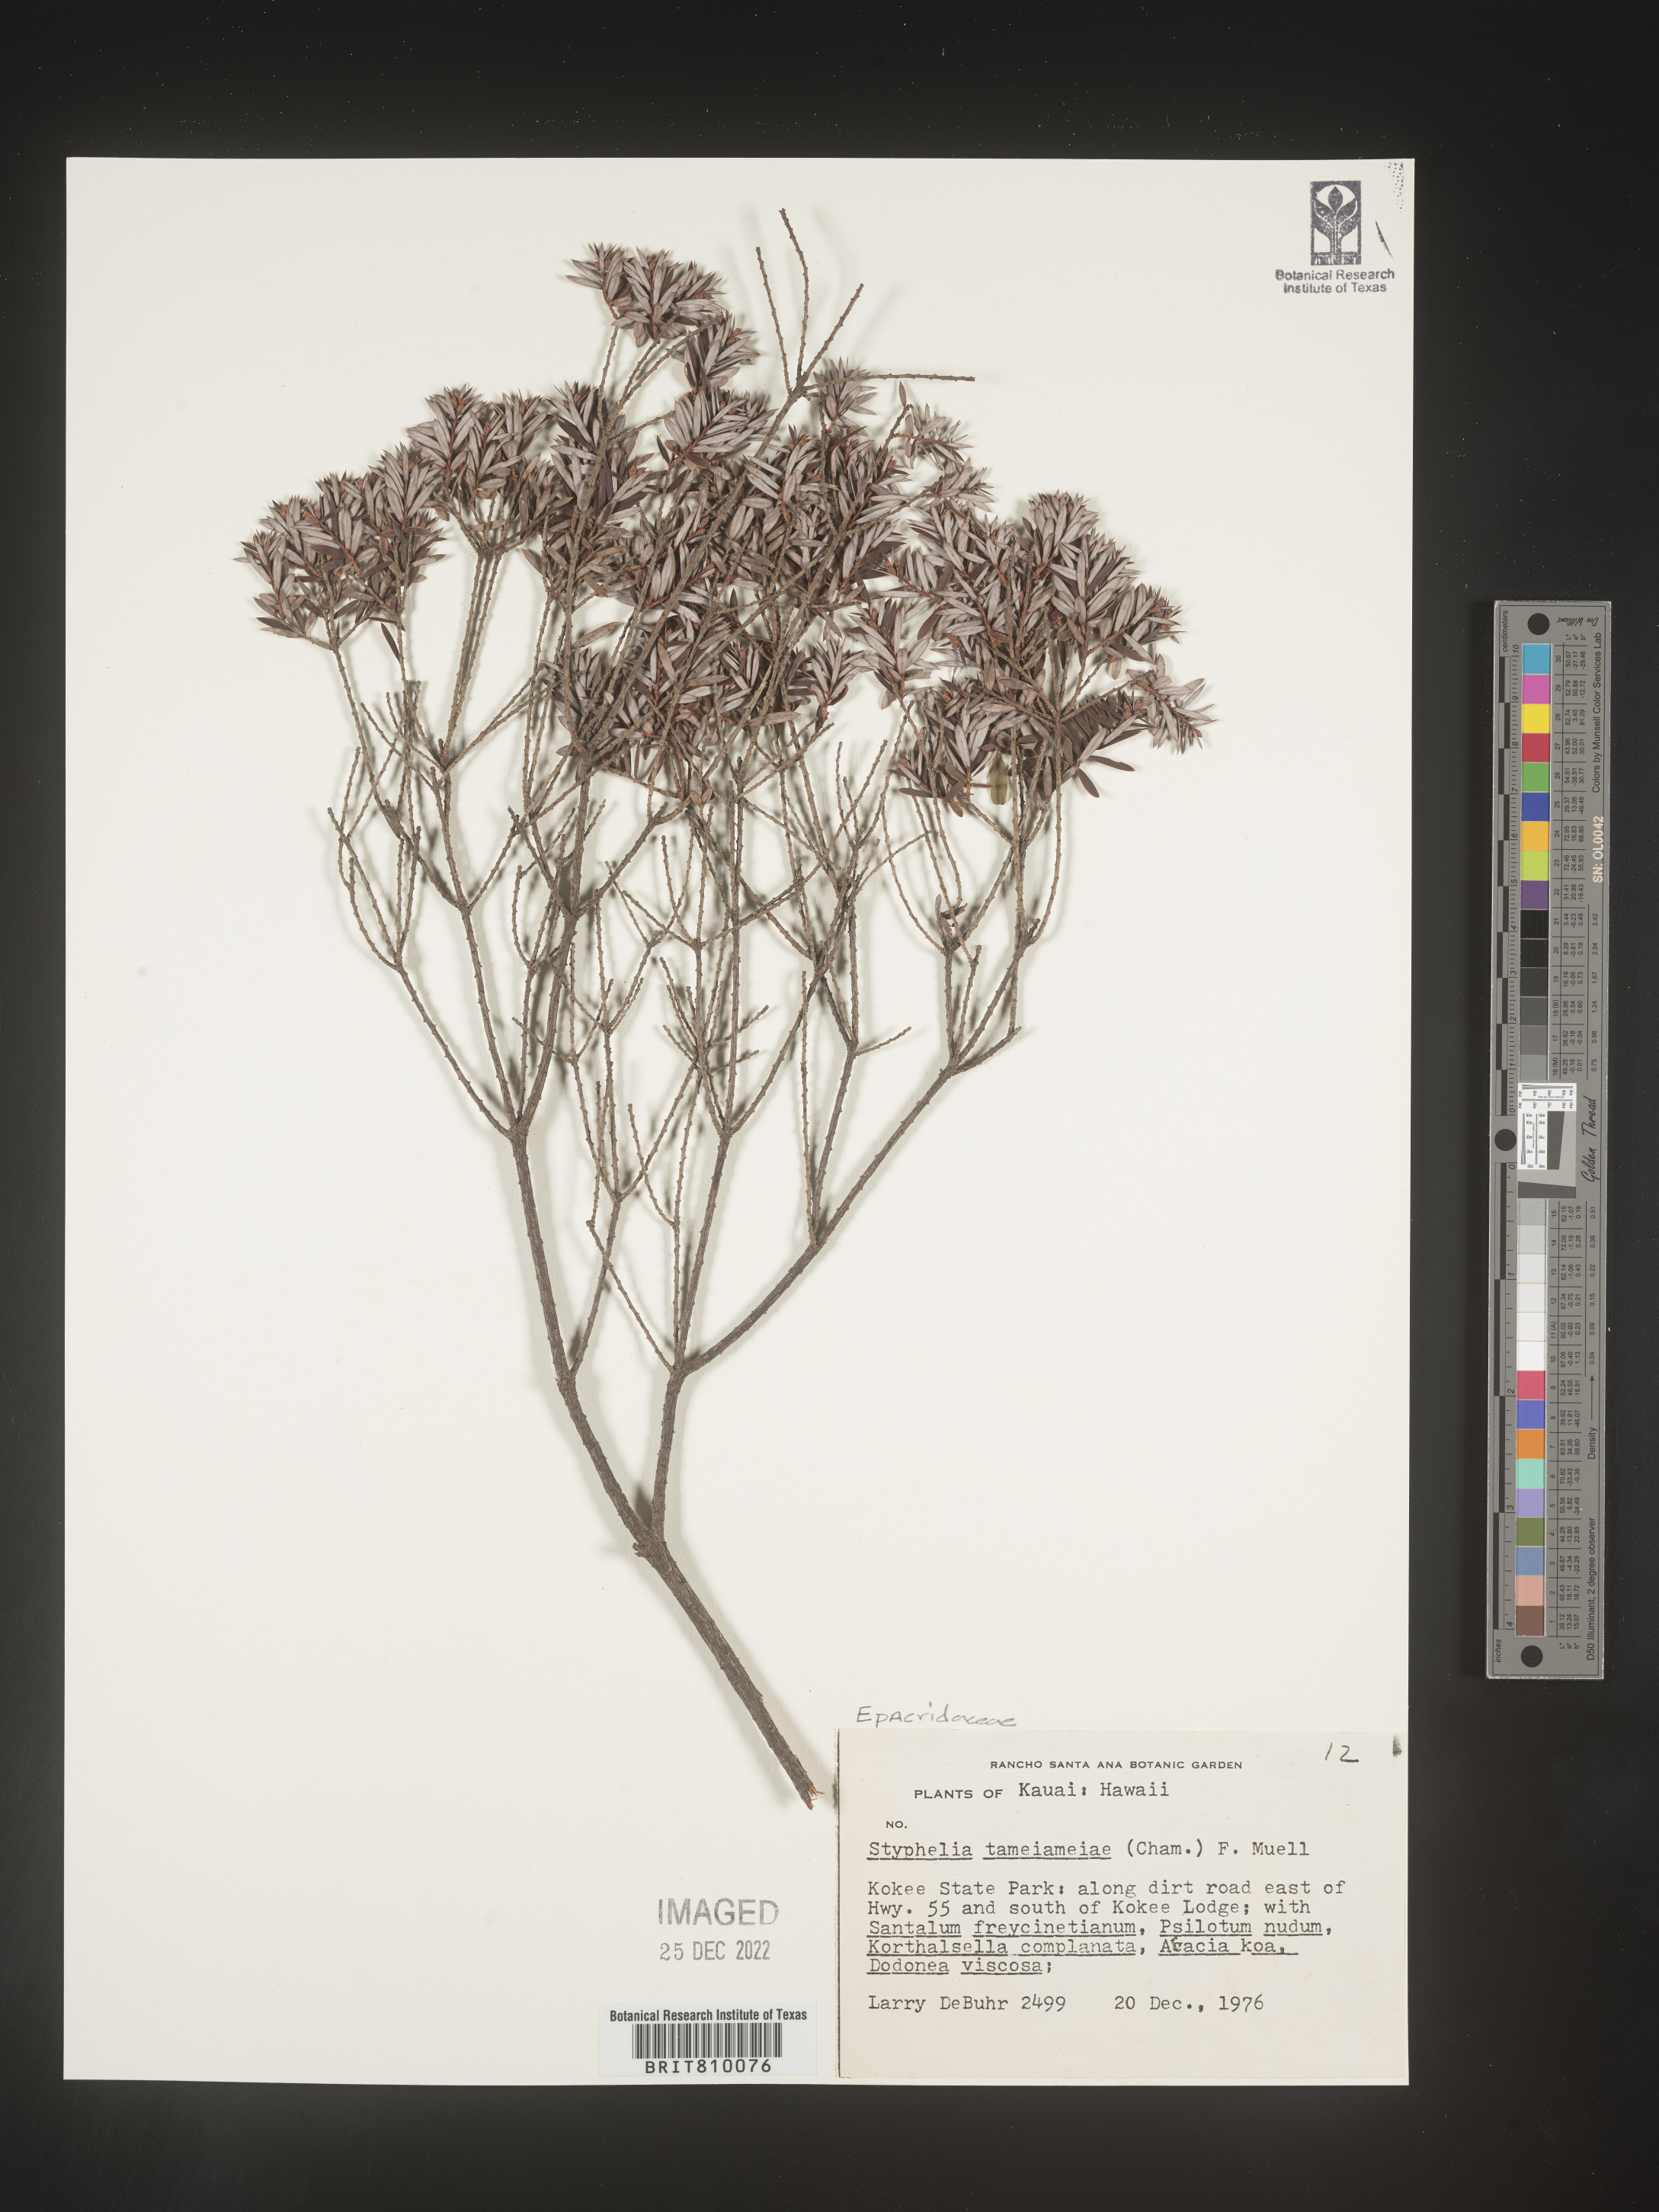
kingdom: Plantae
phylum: Tracheophyta
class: Magnoliopsida
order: Ericales
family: Ericaceae
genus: Styphelia
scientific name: Styphelia
